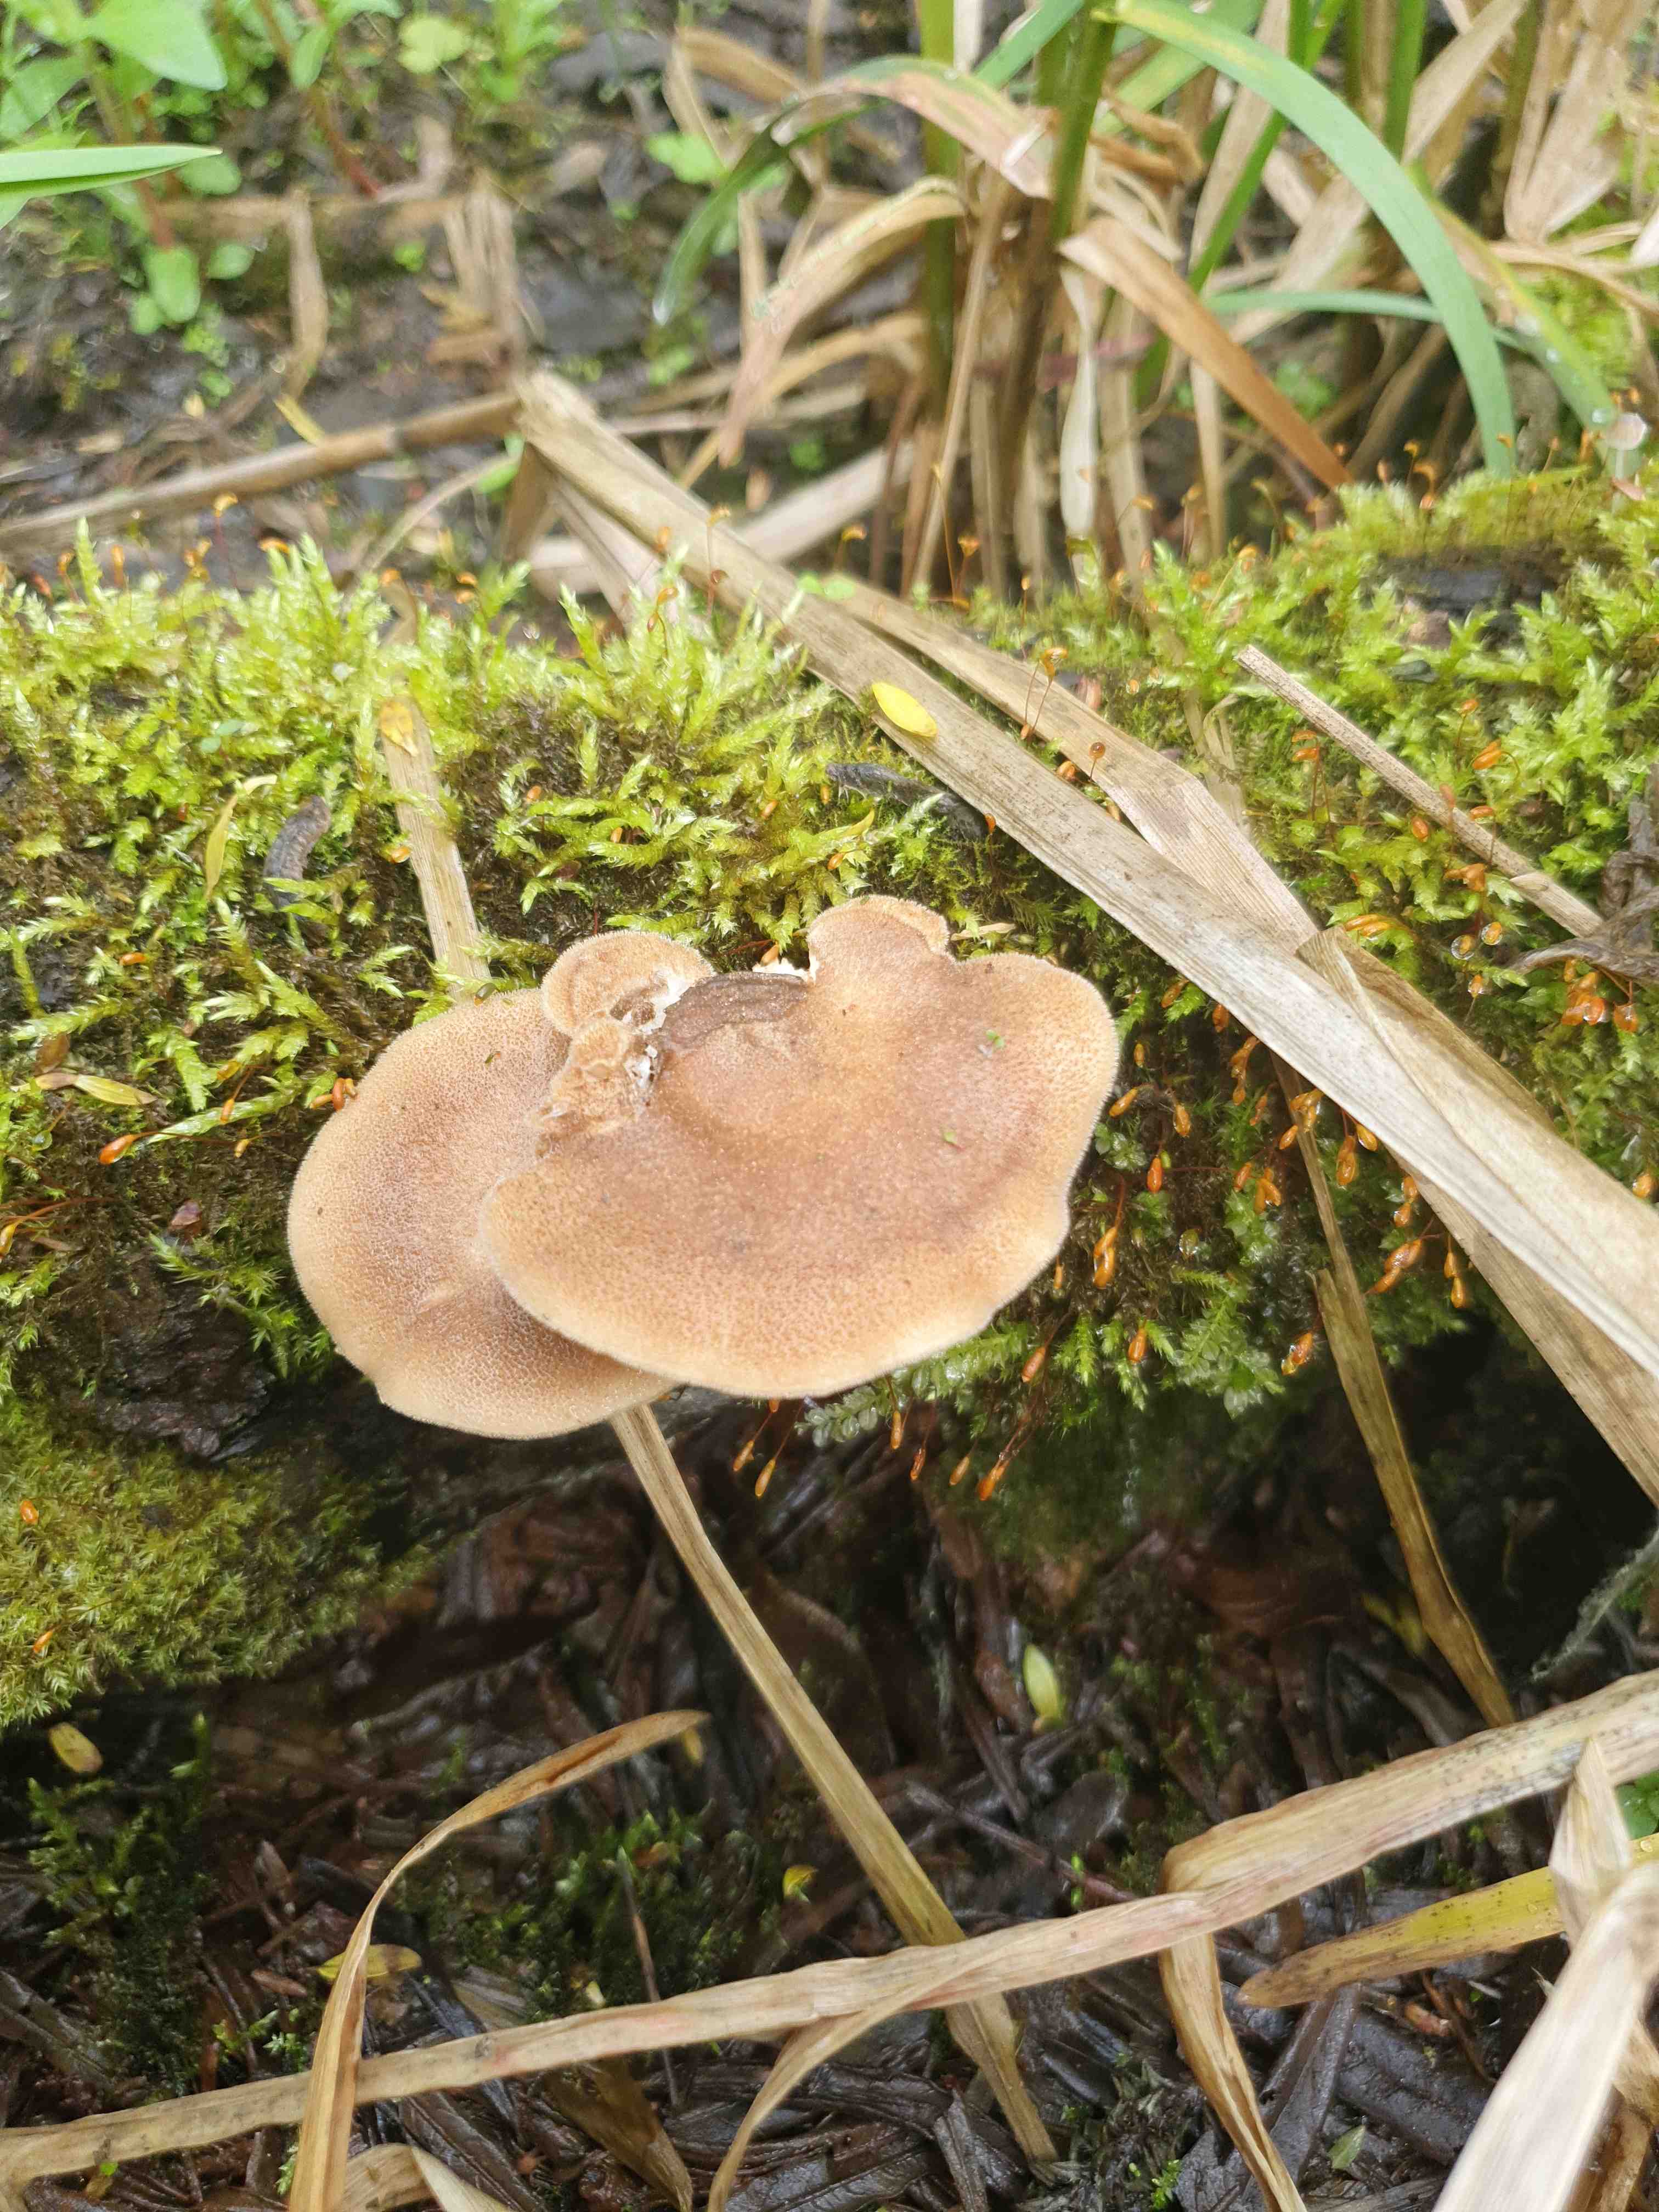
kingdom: Fungi
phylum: Basidiomycota
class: Agaricomycetes
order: Polyporales
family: Polyporaceae
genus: Lentinus
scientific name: Lentinus substrictus
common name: forårs-stilkporesvamp
